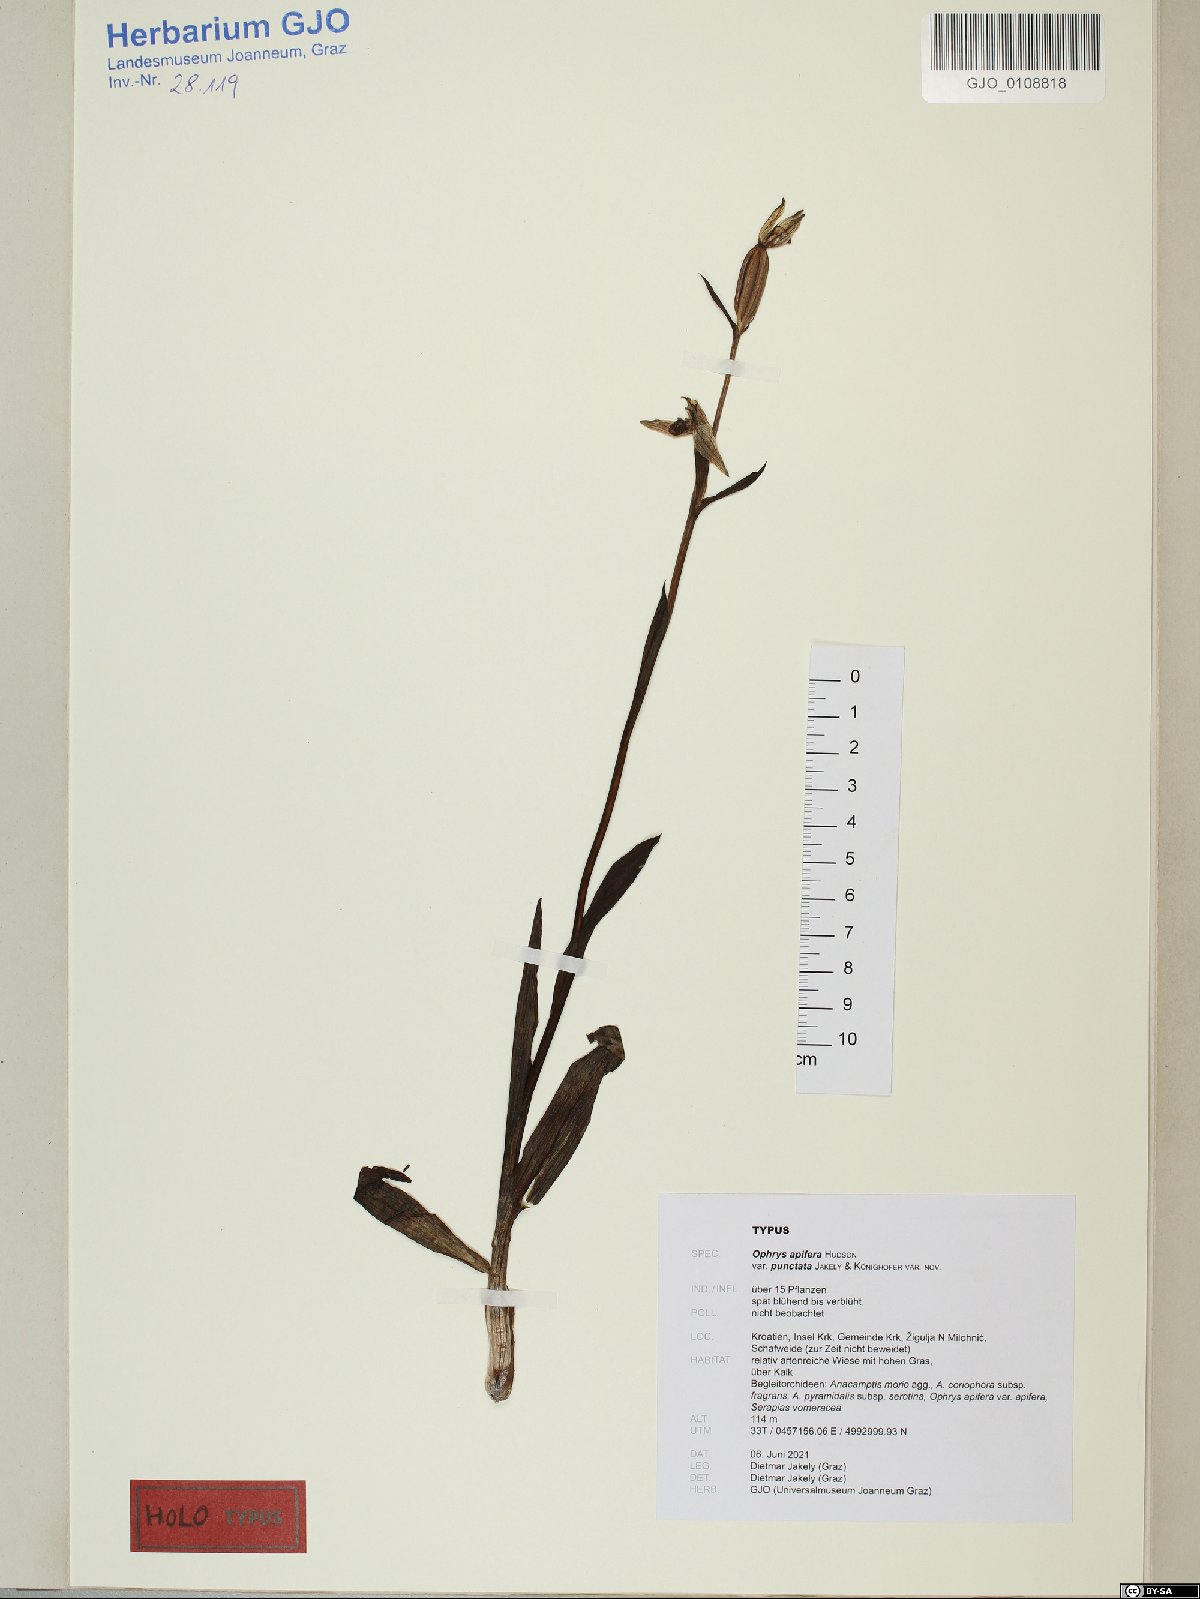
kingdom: Plantae
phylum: Tracheophyta
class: Liliopsida
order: Asparagales
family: Orchidaceae
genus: Ophrys
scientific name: Ophrys apifera
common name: Bee orchid
